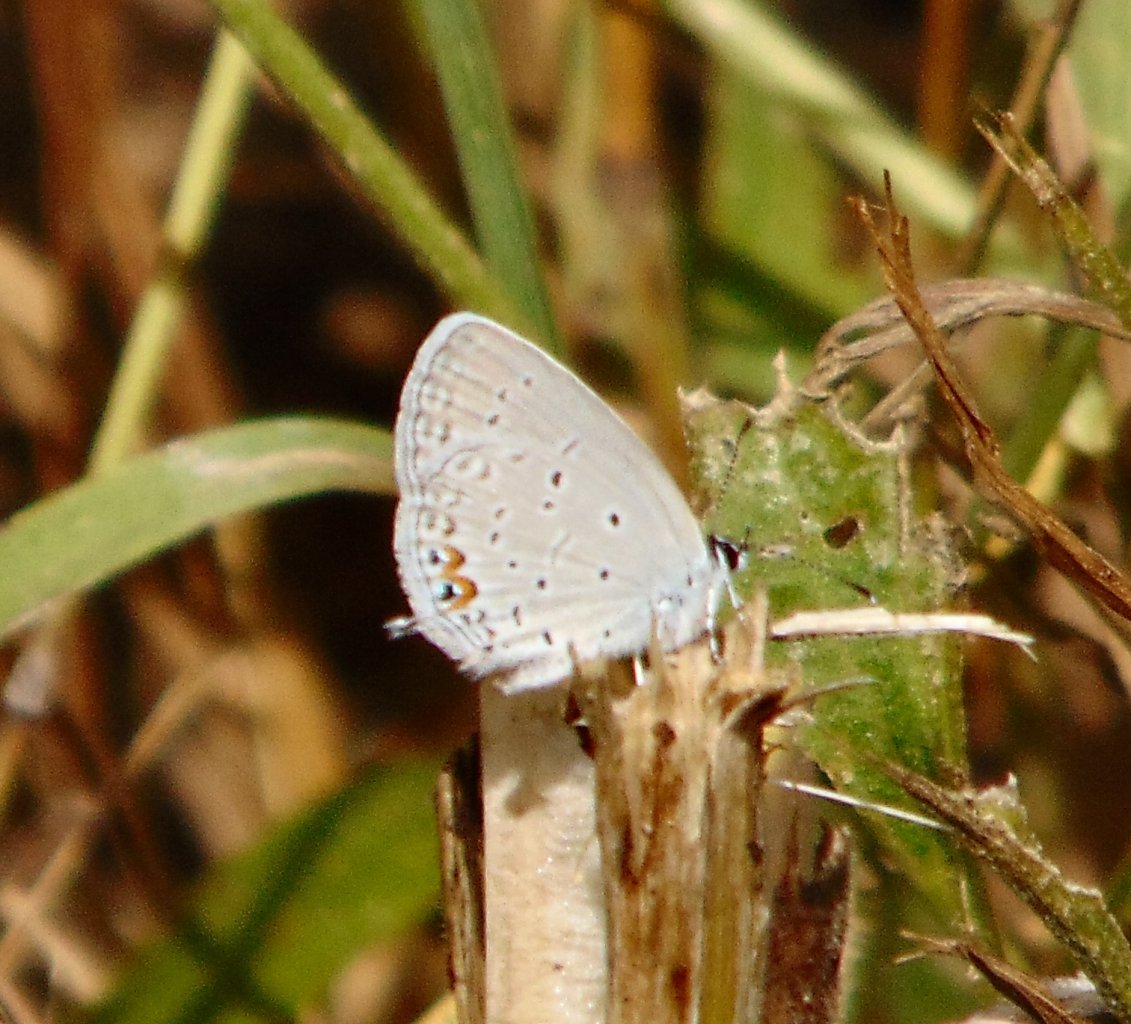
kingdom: Animalia
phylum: Arthropoda
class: Insecta
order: Lepidoptera
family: Lycaenidae
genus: Elkalyce
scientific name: Elkalyce comyntas
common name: Eastern Tailed-Blue
